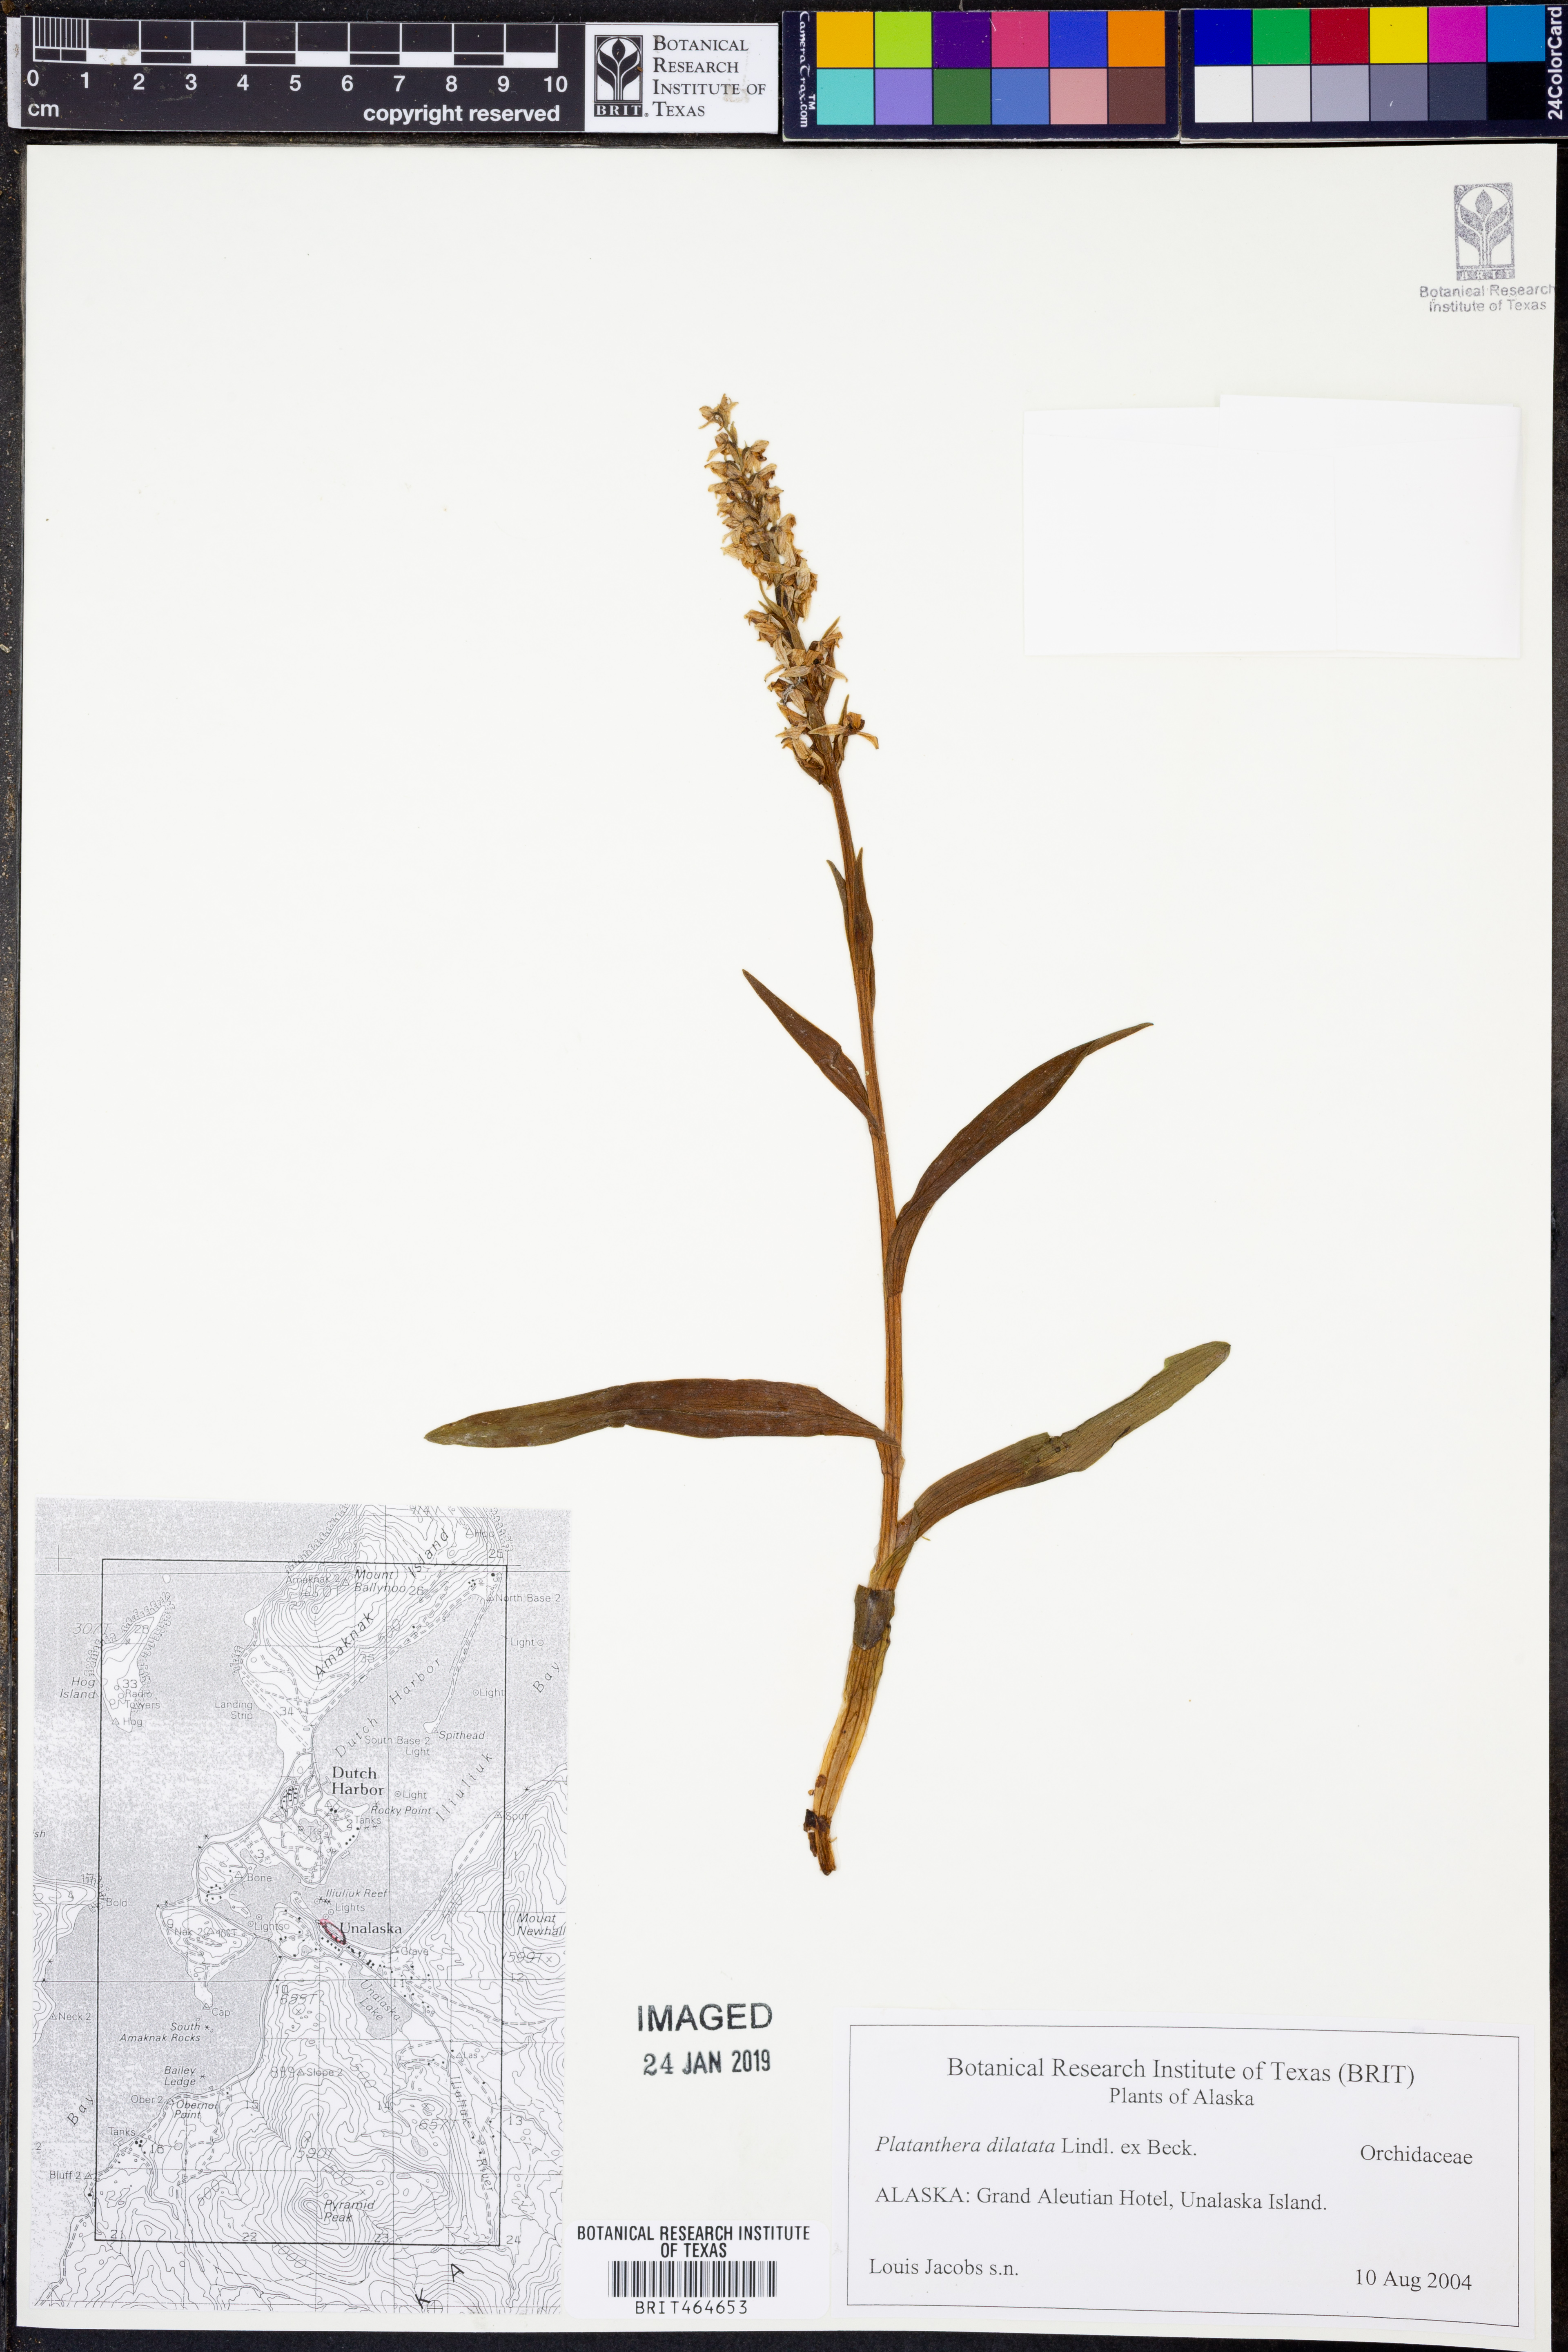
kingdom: Plantae
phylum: Tracheophyta
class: Liliopsida
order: Asparagales
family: Orchidaceae
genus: Platanthera
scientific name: Platanthera dilatata
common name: Bog candles
